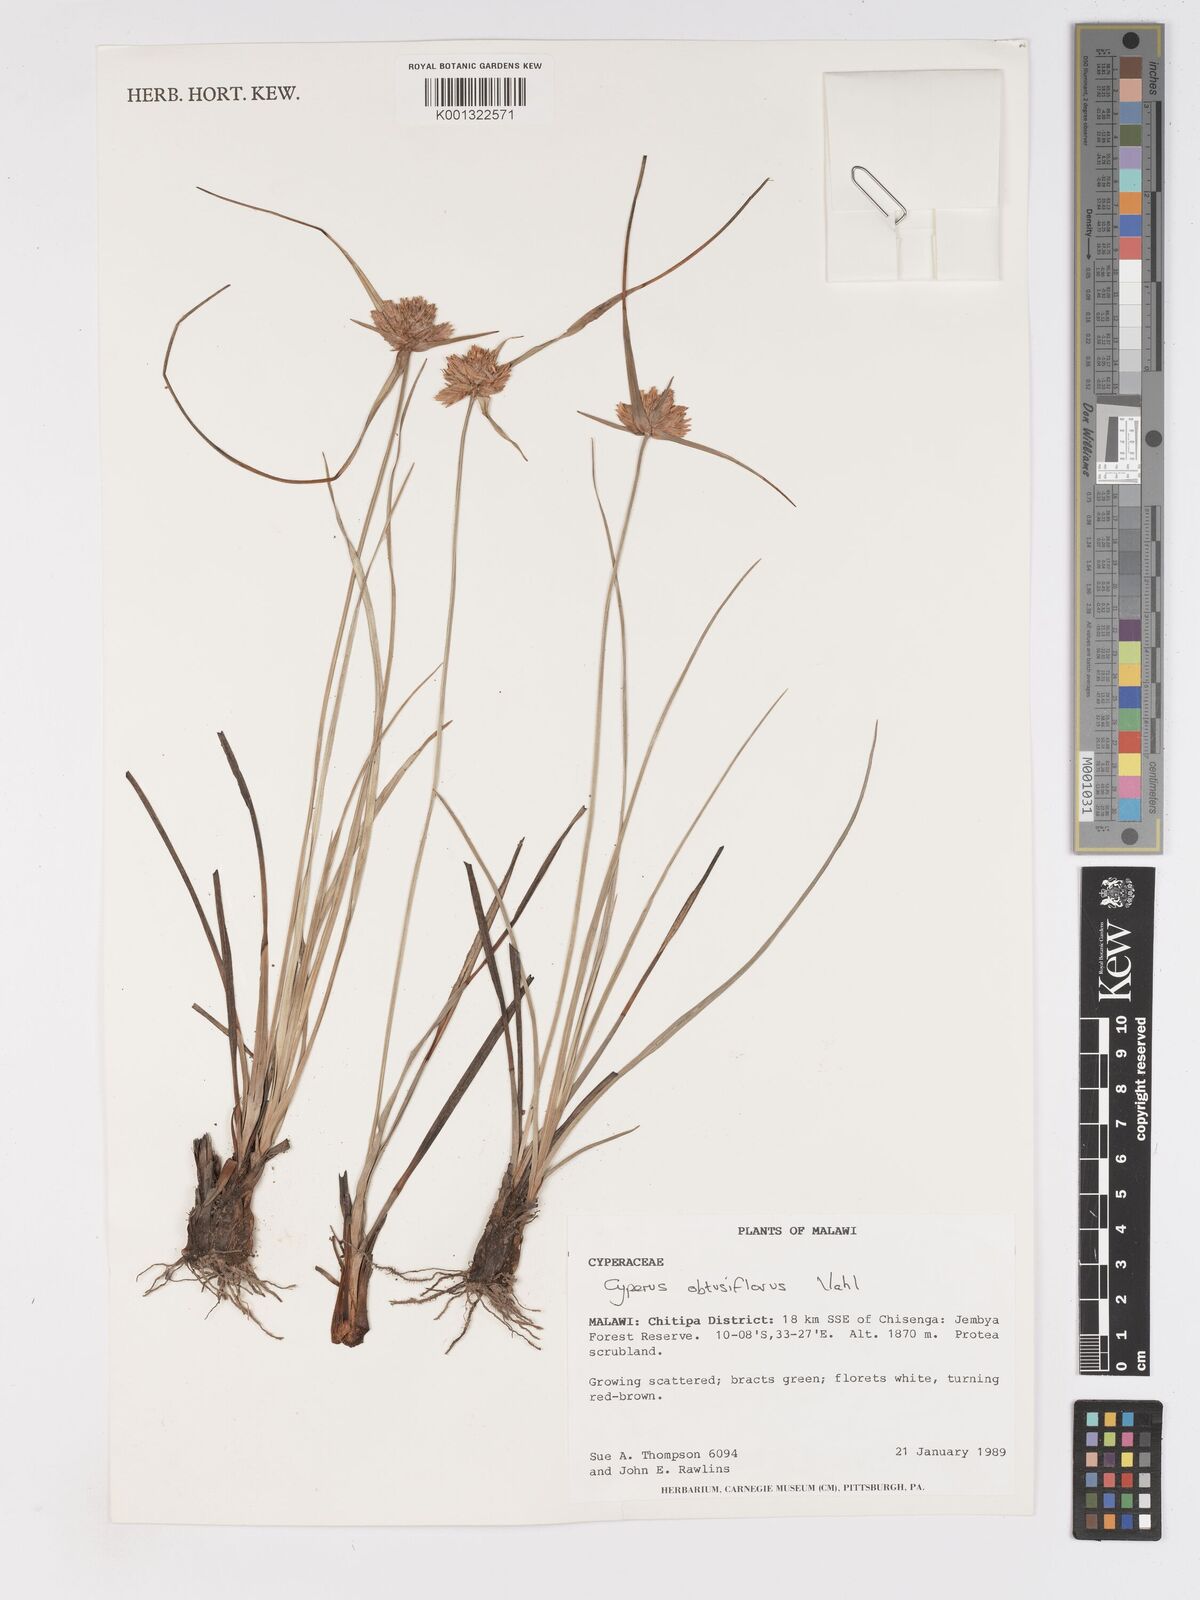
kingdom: Plantae
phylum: Tracheophyta
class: Liliopsida
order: Poales
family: Cyperaceae
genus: Cyperus
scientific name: Cyperus niveus
